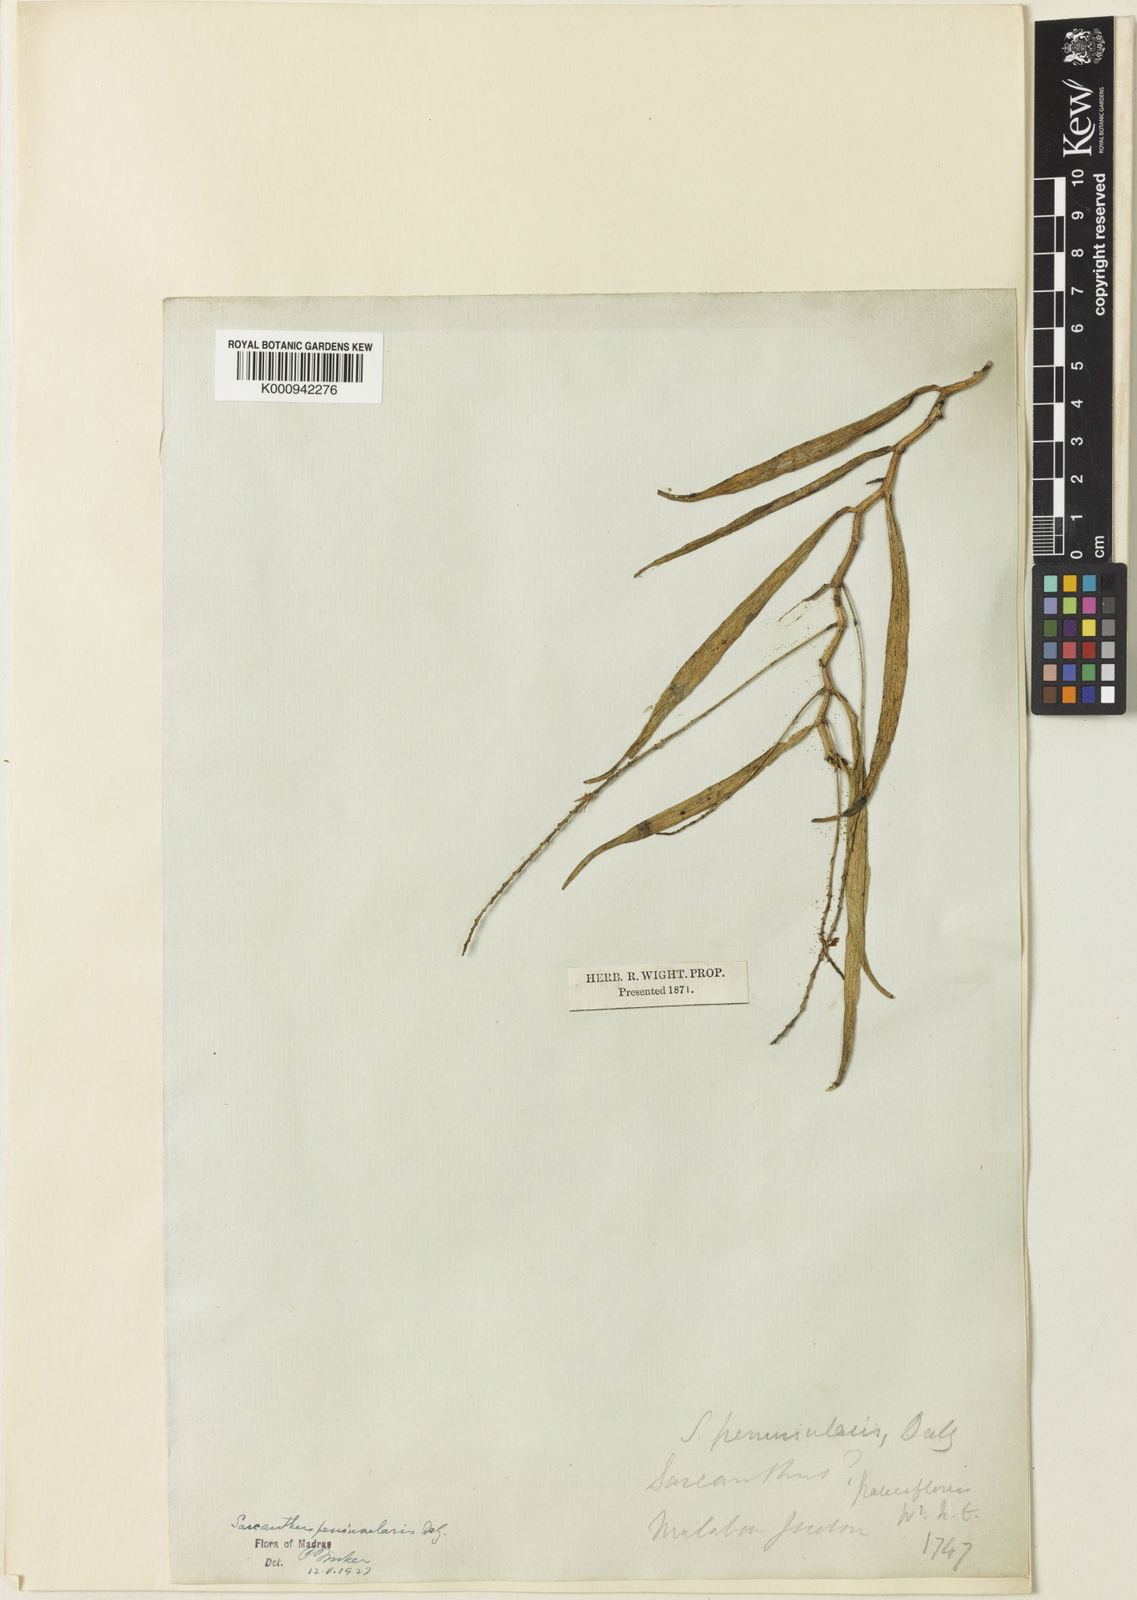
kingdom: Plantae
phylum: Tracheophyta
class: Liliopsida
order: Asparagales
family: Orchidaceae
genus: Cleisostoma
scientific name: Cleisostoma tenuifolium
